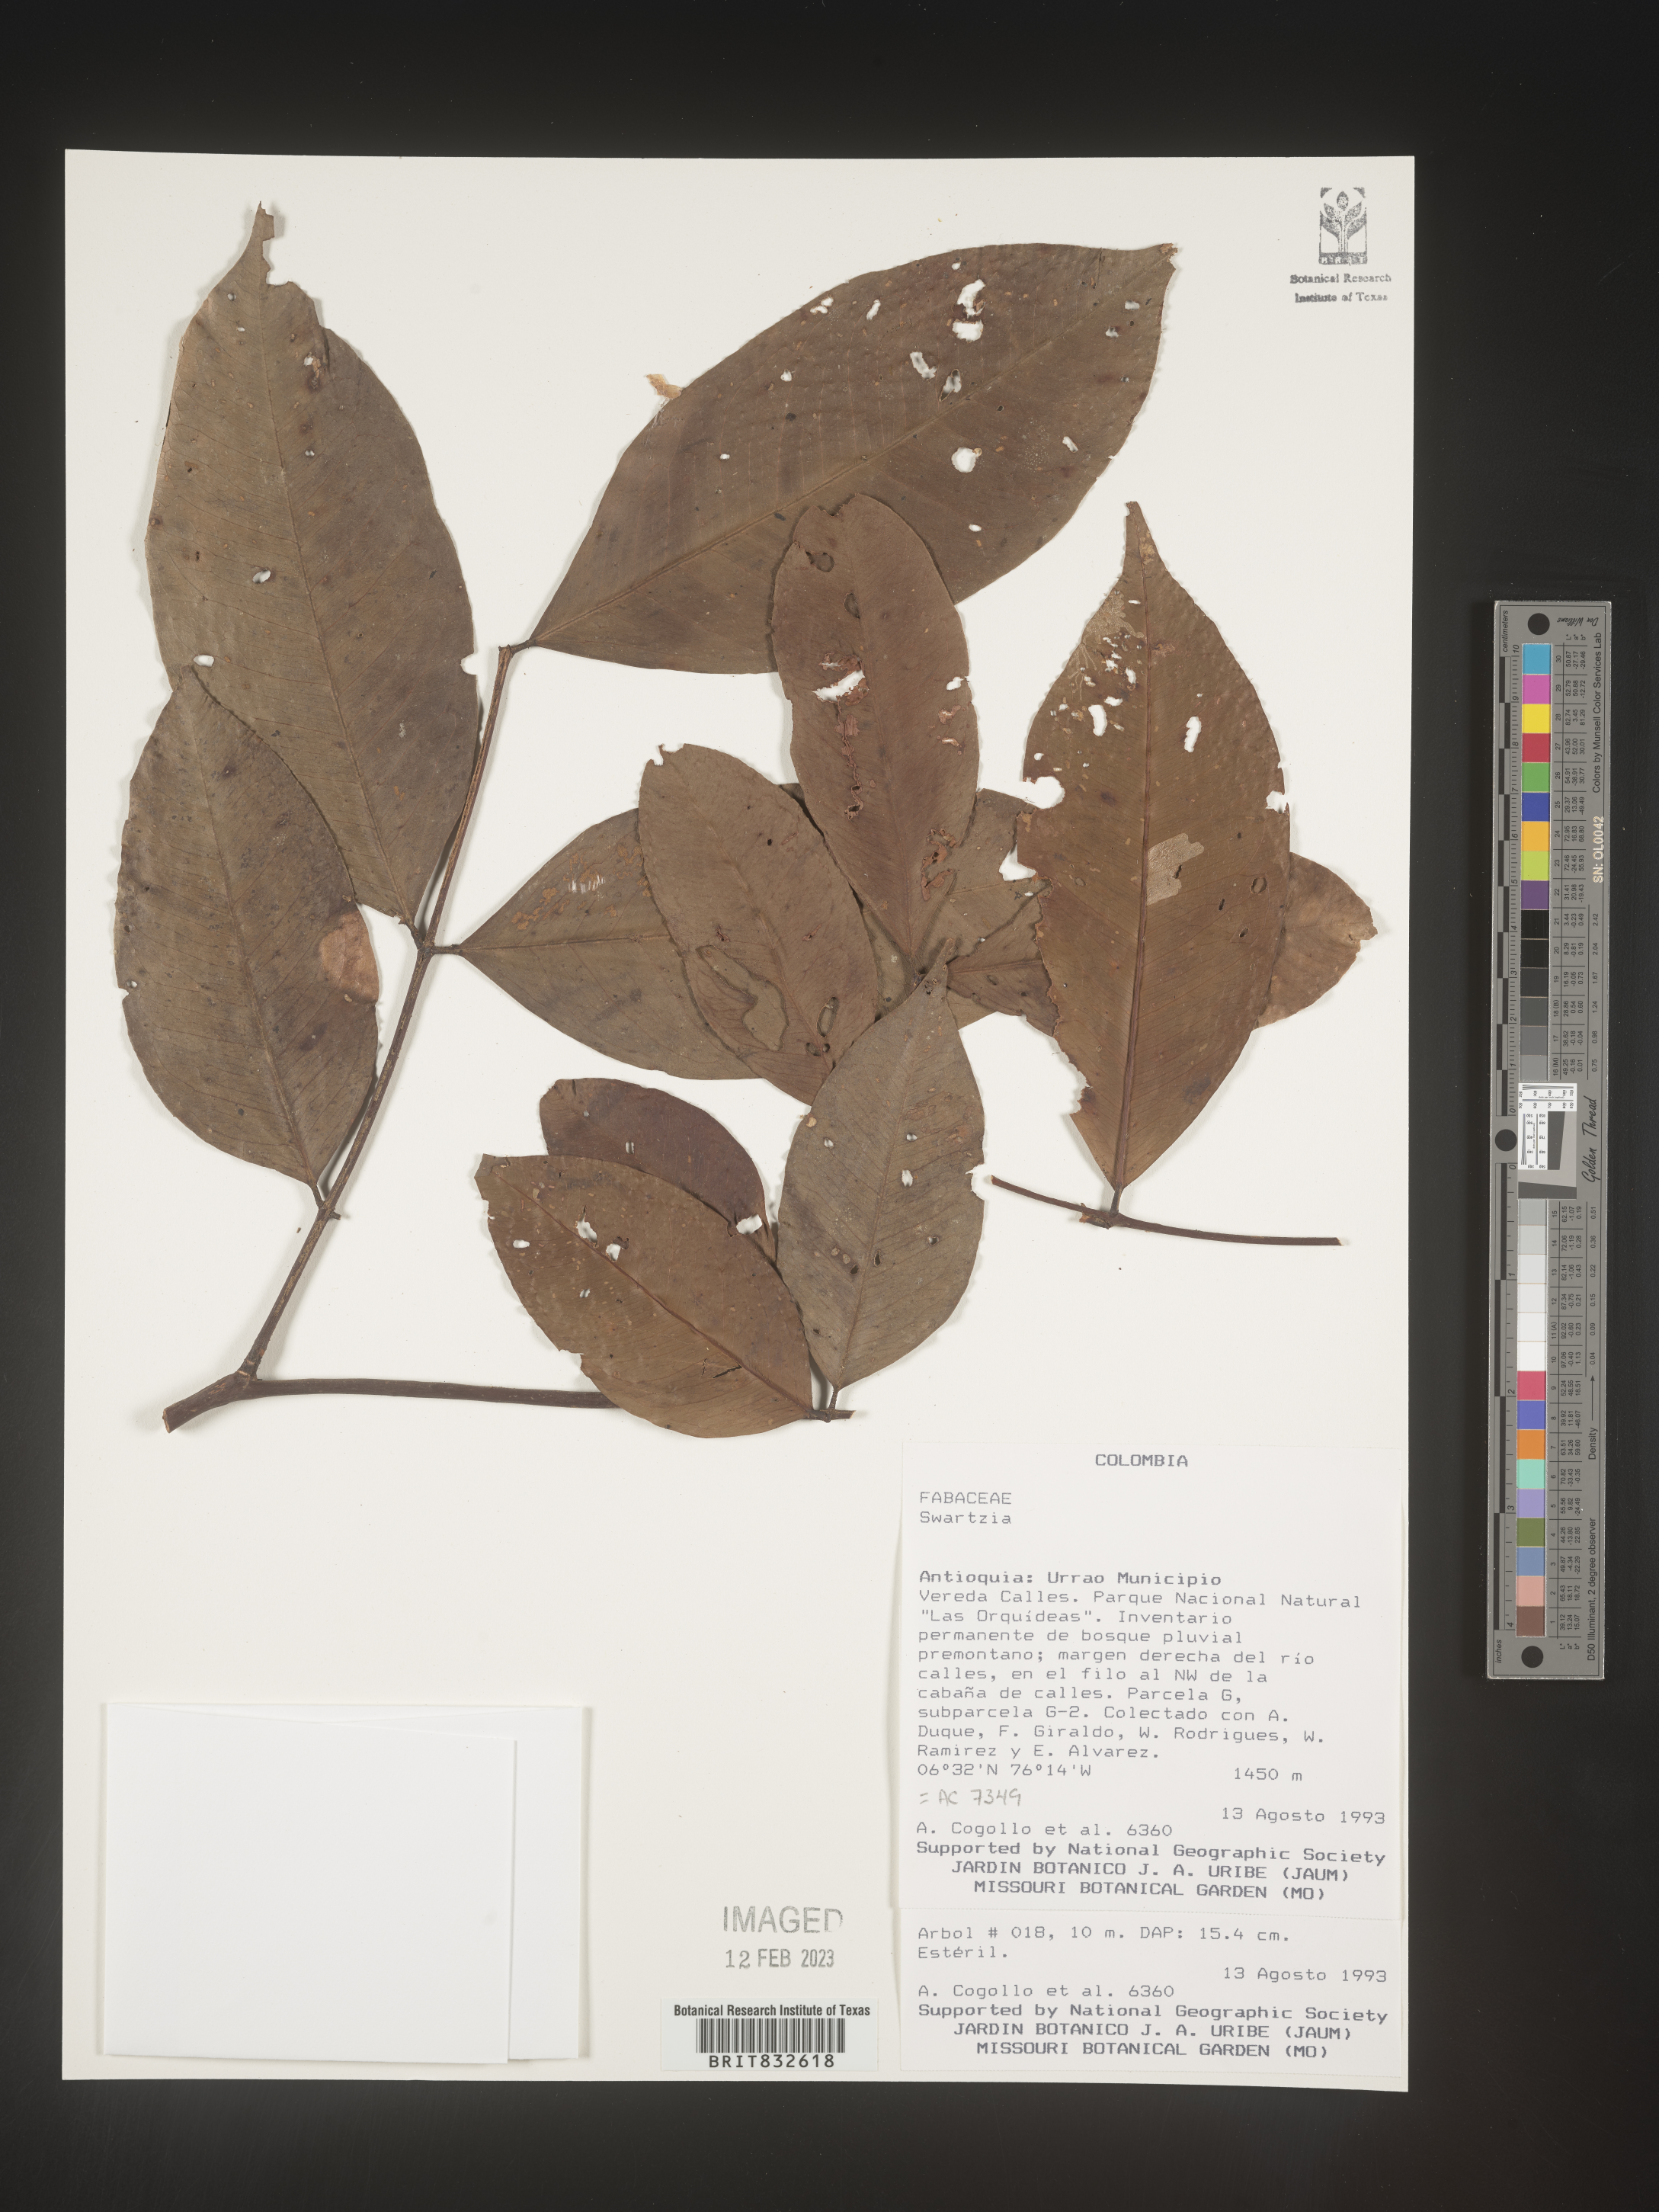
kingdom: Plantae
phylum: Tracheophyta
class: Magnoliopsida
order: Fabales
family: Fabaceae
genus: Swartzia
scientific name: Swartzia
